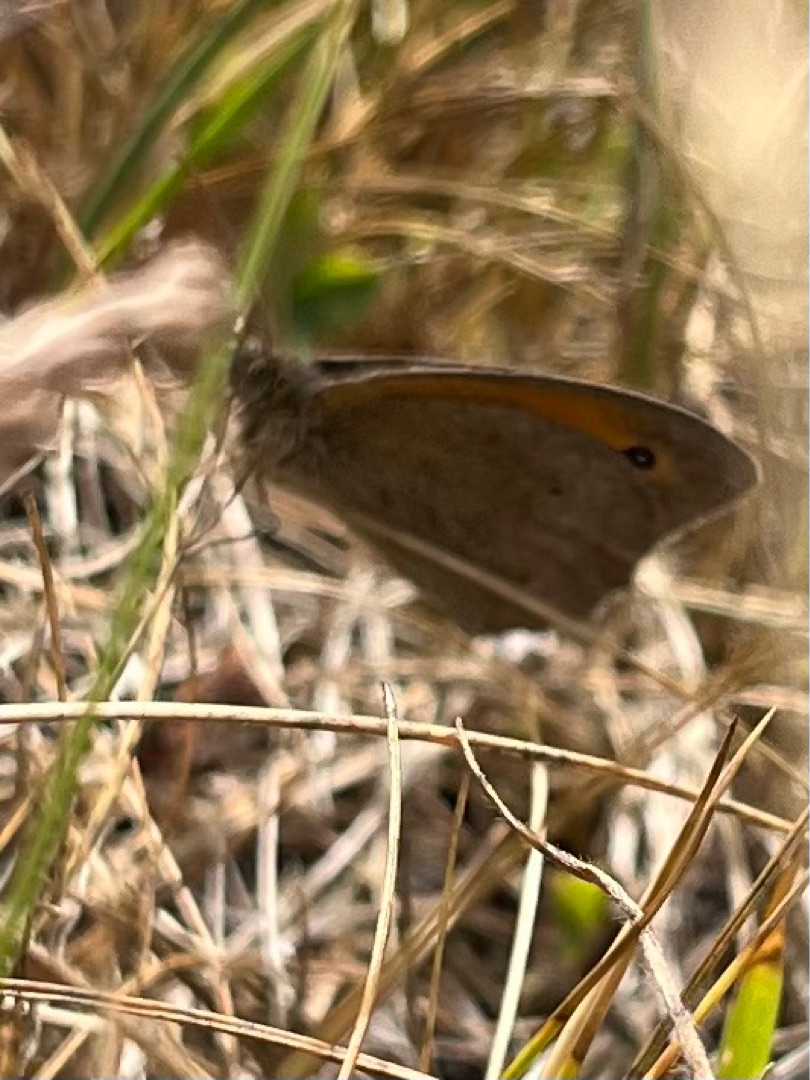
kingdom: Animalia
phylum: Arthropoda
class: Insecta
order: Lepidoptera
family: Nymphalidae
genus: Maniola
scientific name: Maniola jurtina
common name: Græsrandøje
